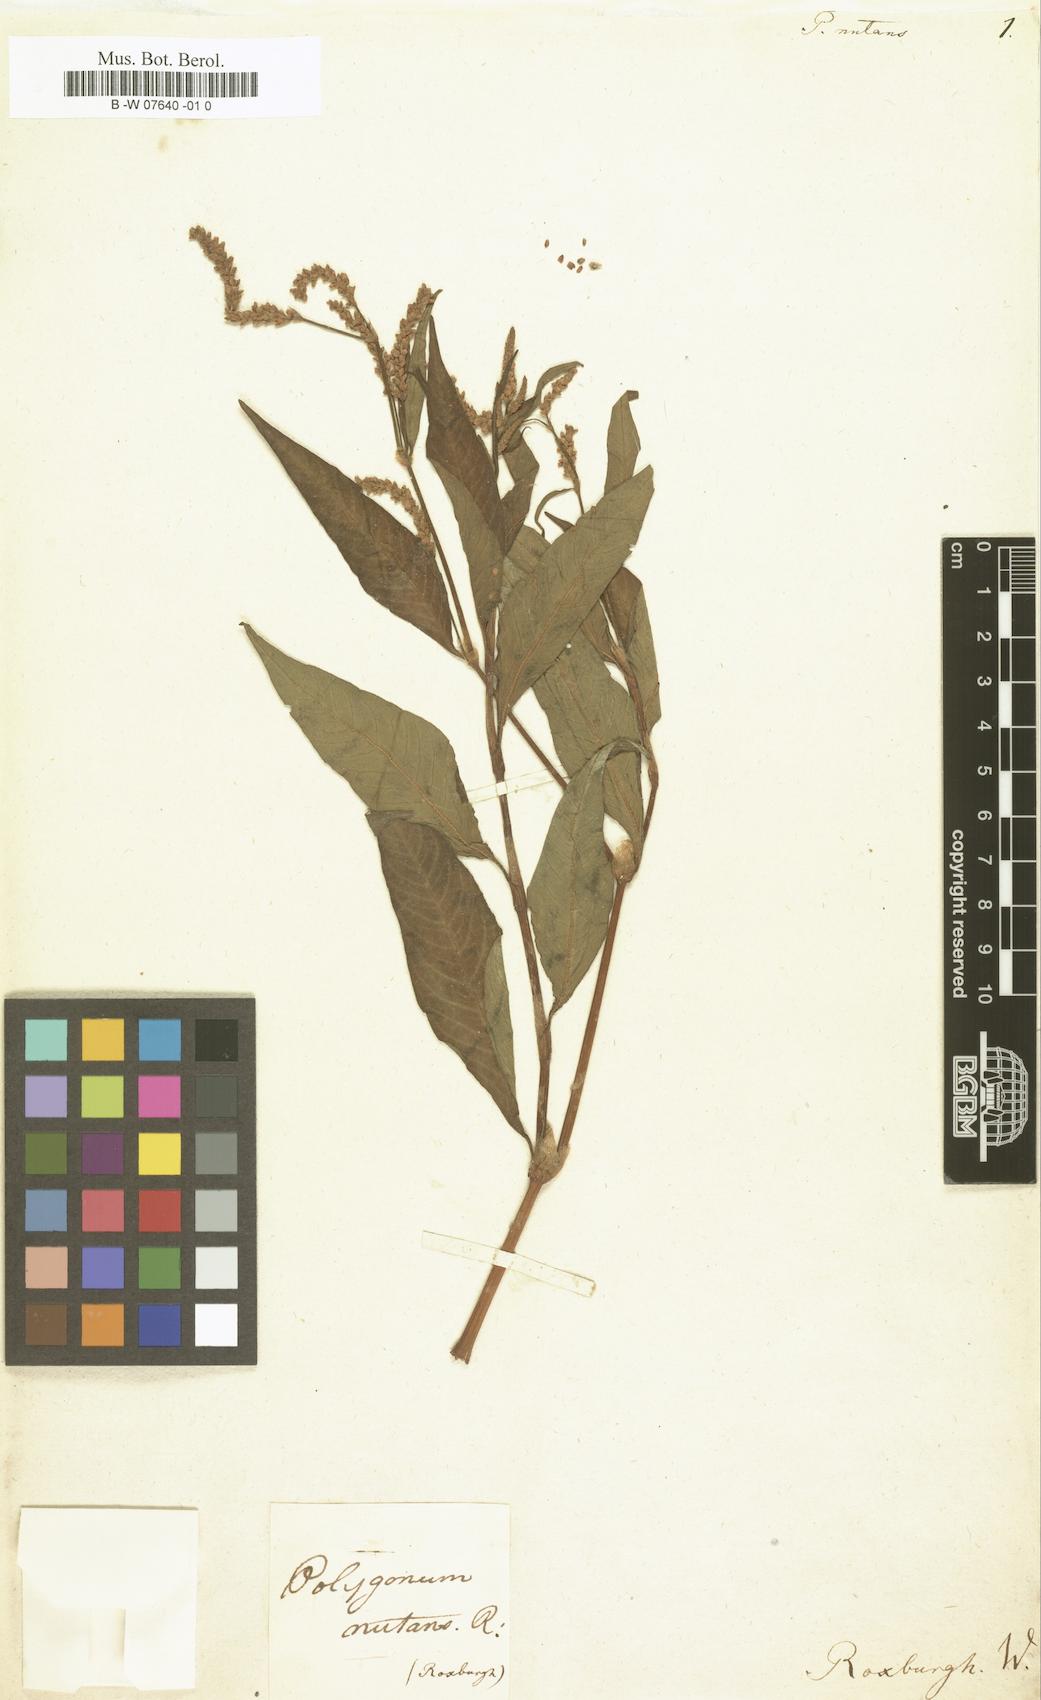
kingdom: Plantae
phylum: Tracheophyta
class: Magnoliopsida
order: Caryophyllales
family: Polygonaceae
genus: Persicaria
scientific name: Persicaria lapathifolia
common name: Curlytop knotweed
